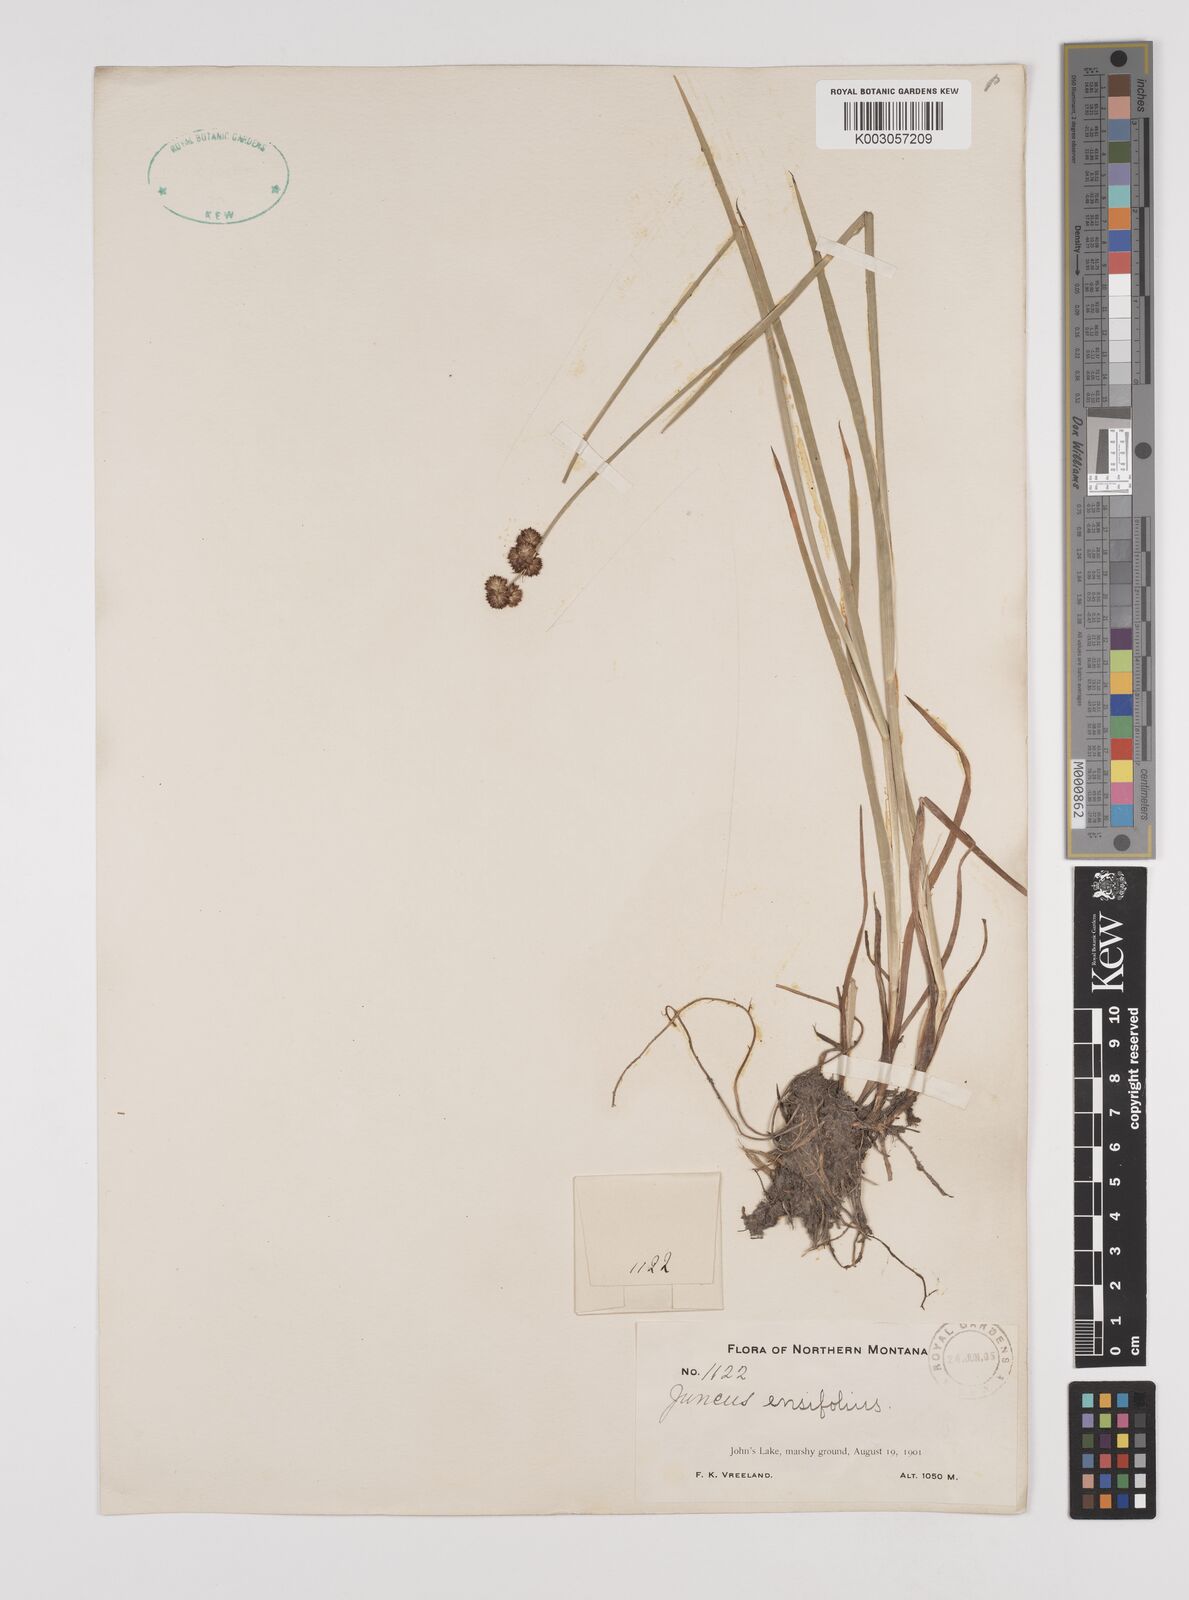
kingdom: Plantae
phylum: Tracheophyta
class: Liliopsida
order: Poales
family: Juncaceae
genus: Juncus
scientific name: Juncus ensifolius
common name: Sword-leaved rush
